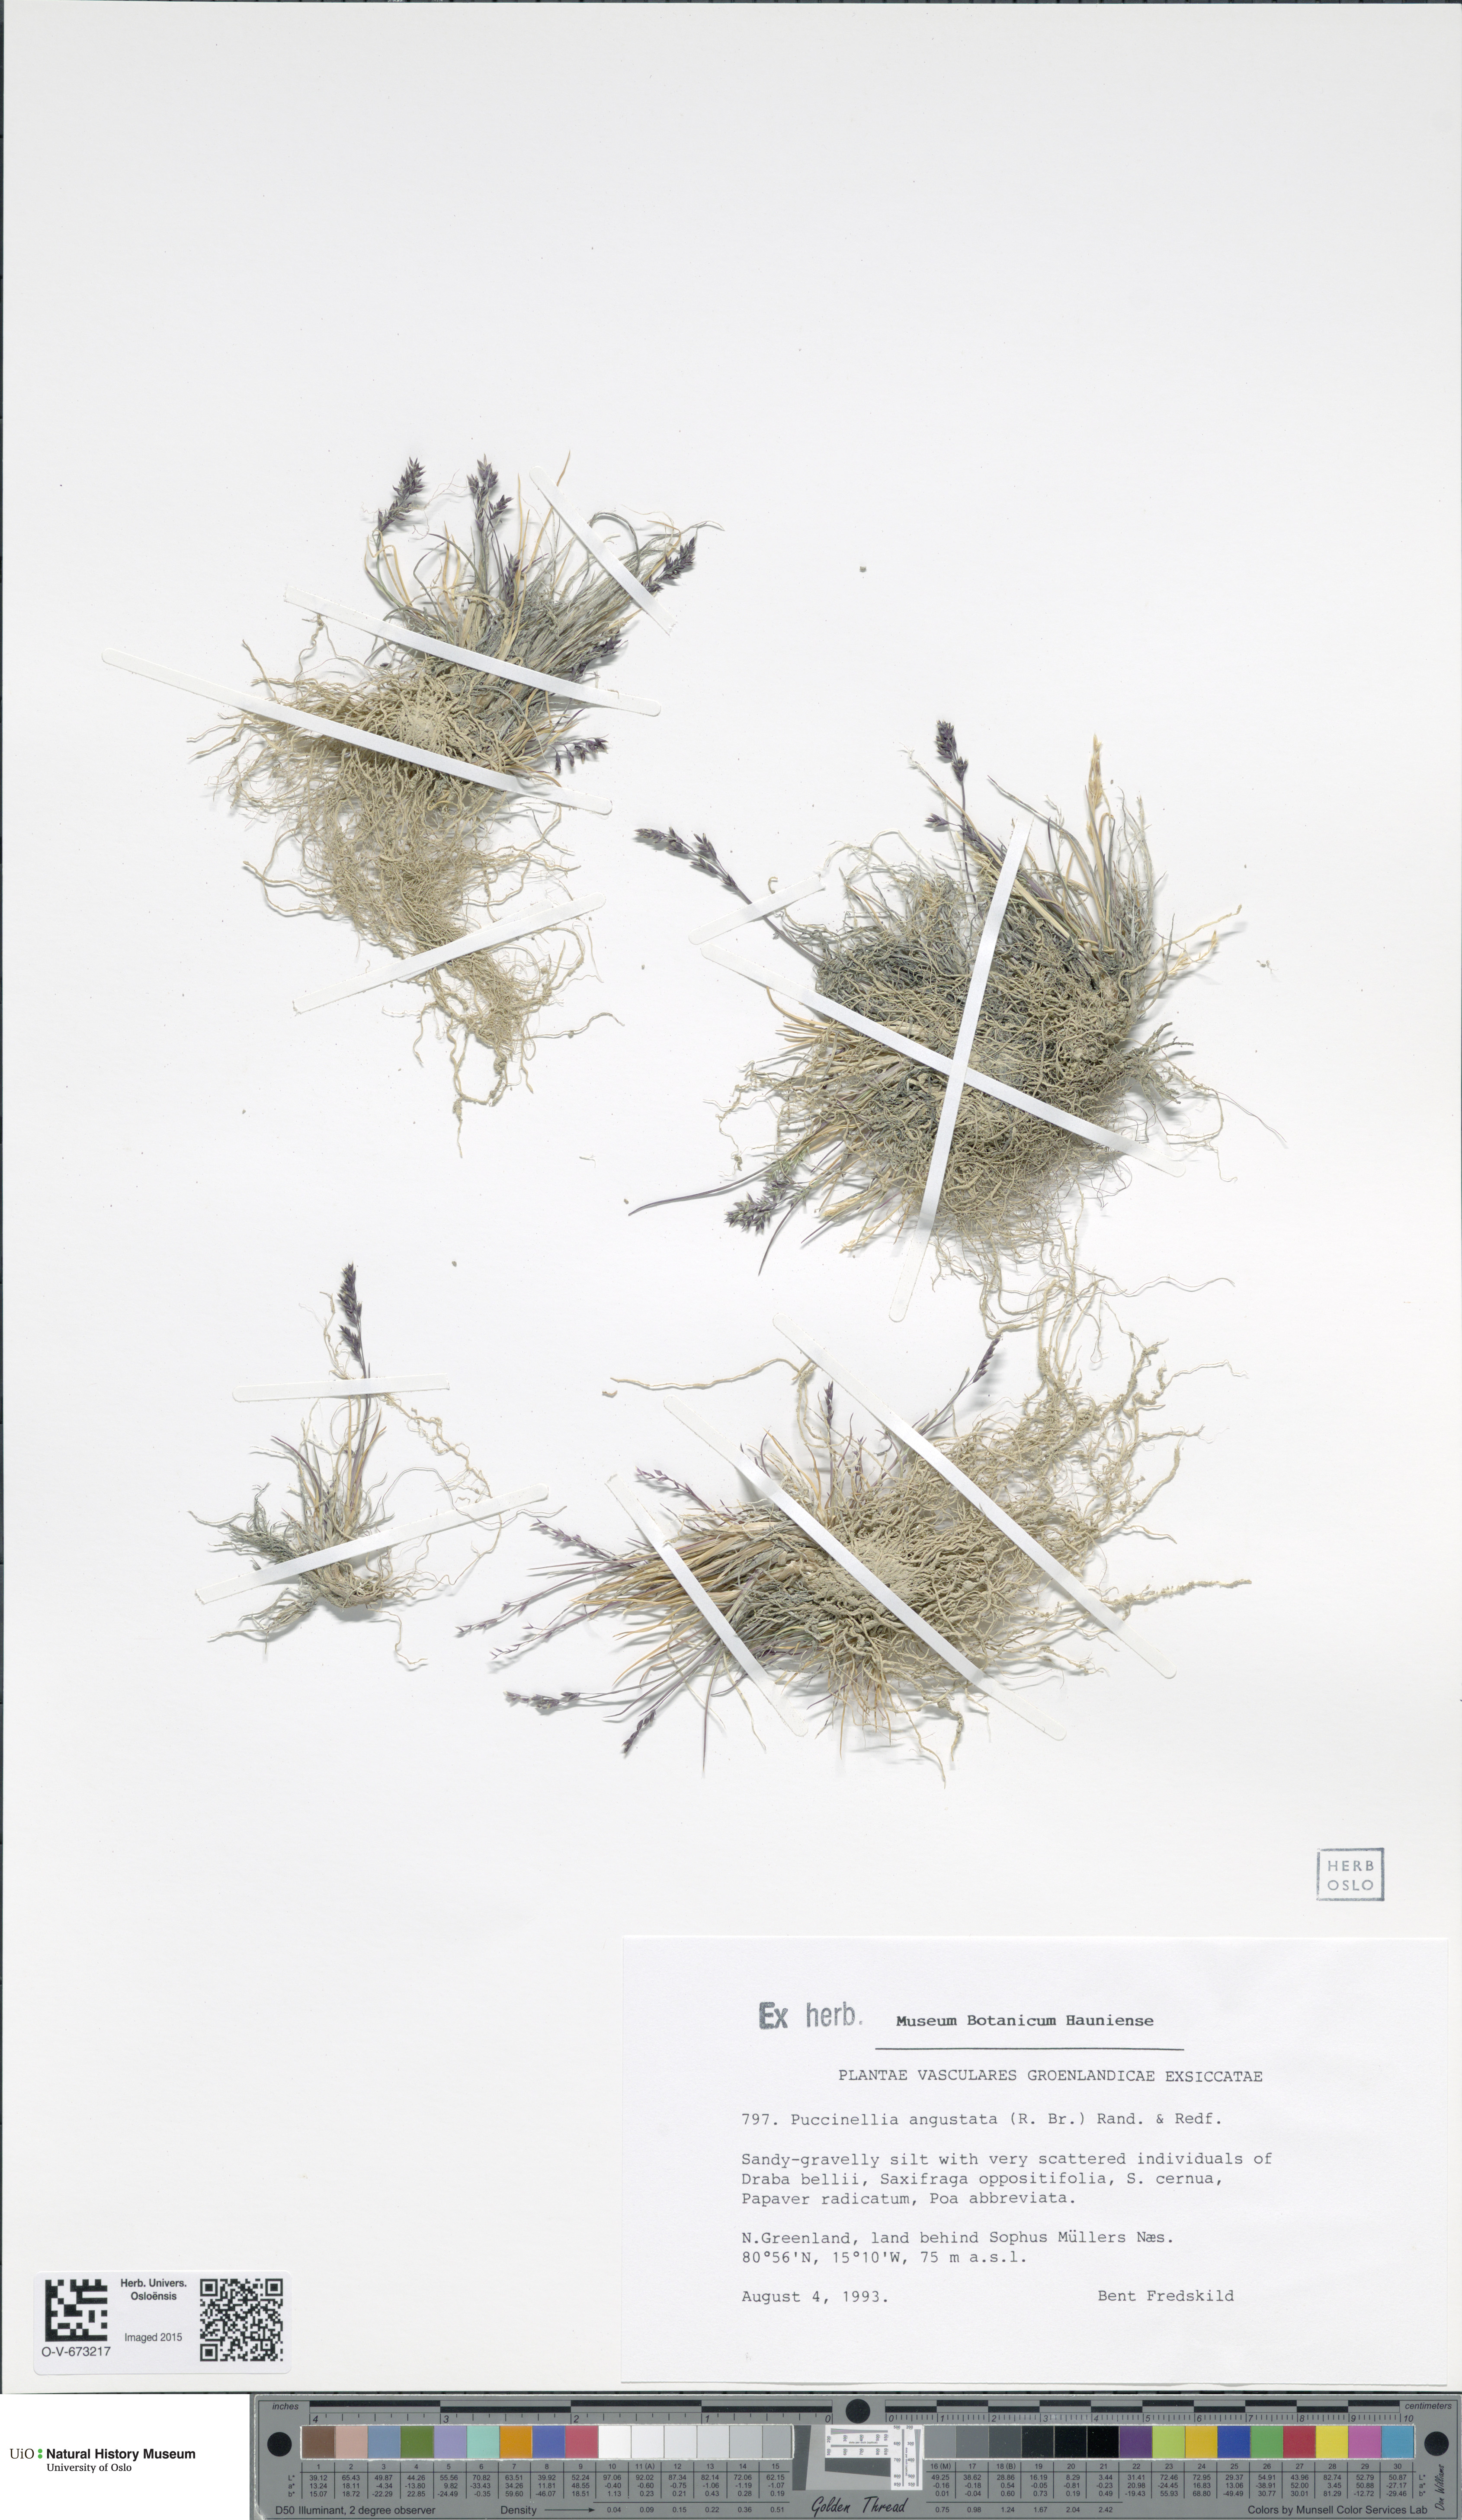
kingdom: Plantae
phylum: Tracheophyta
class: Liliopsida
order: Poales
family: Poaceae
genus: Puccinellia
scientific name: Puccinellia angustata
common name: Narrow alkaligrass
